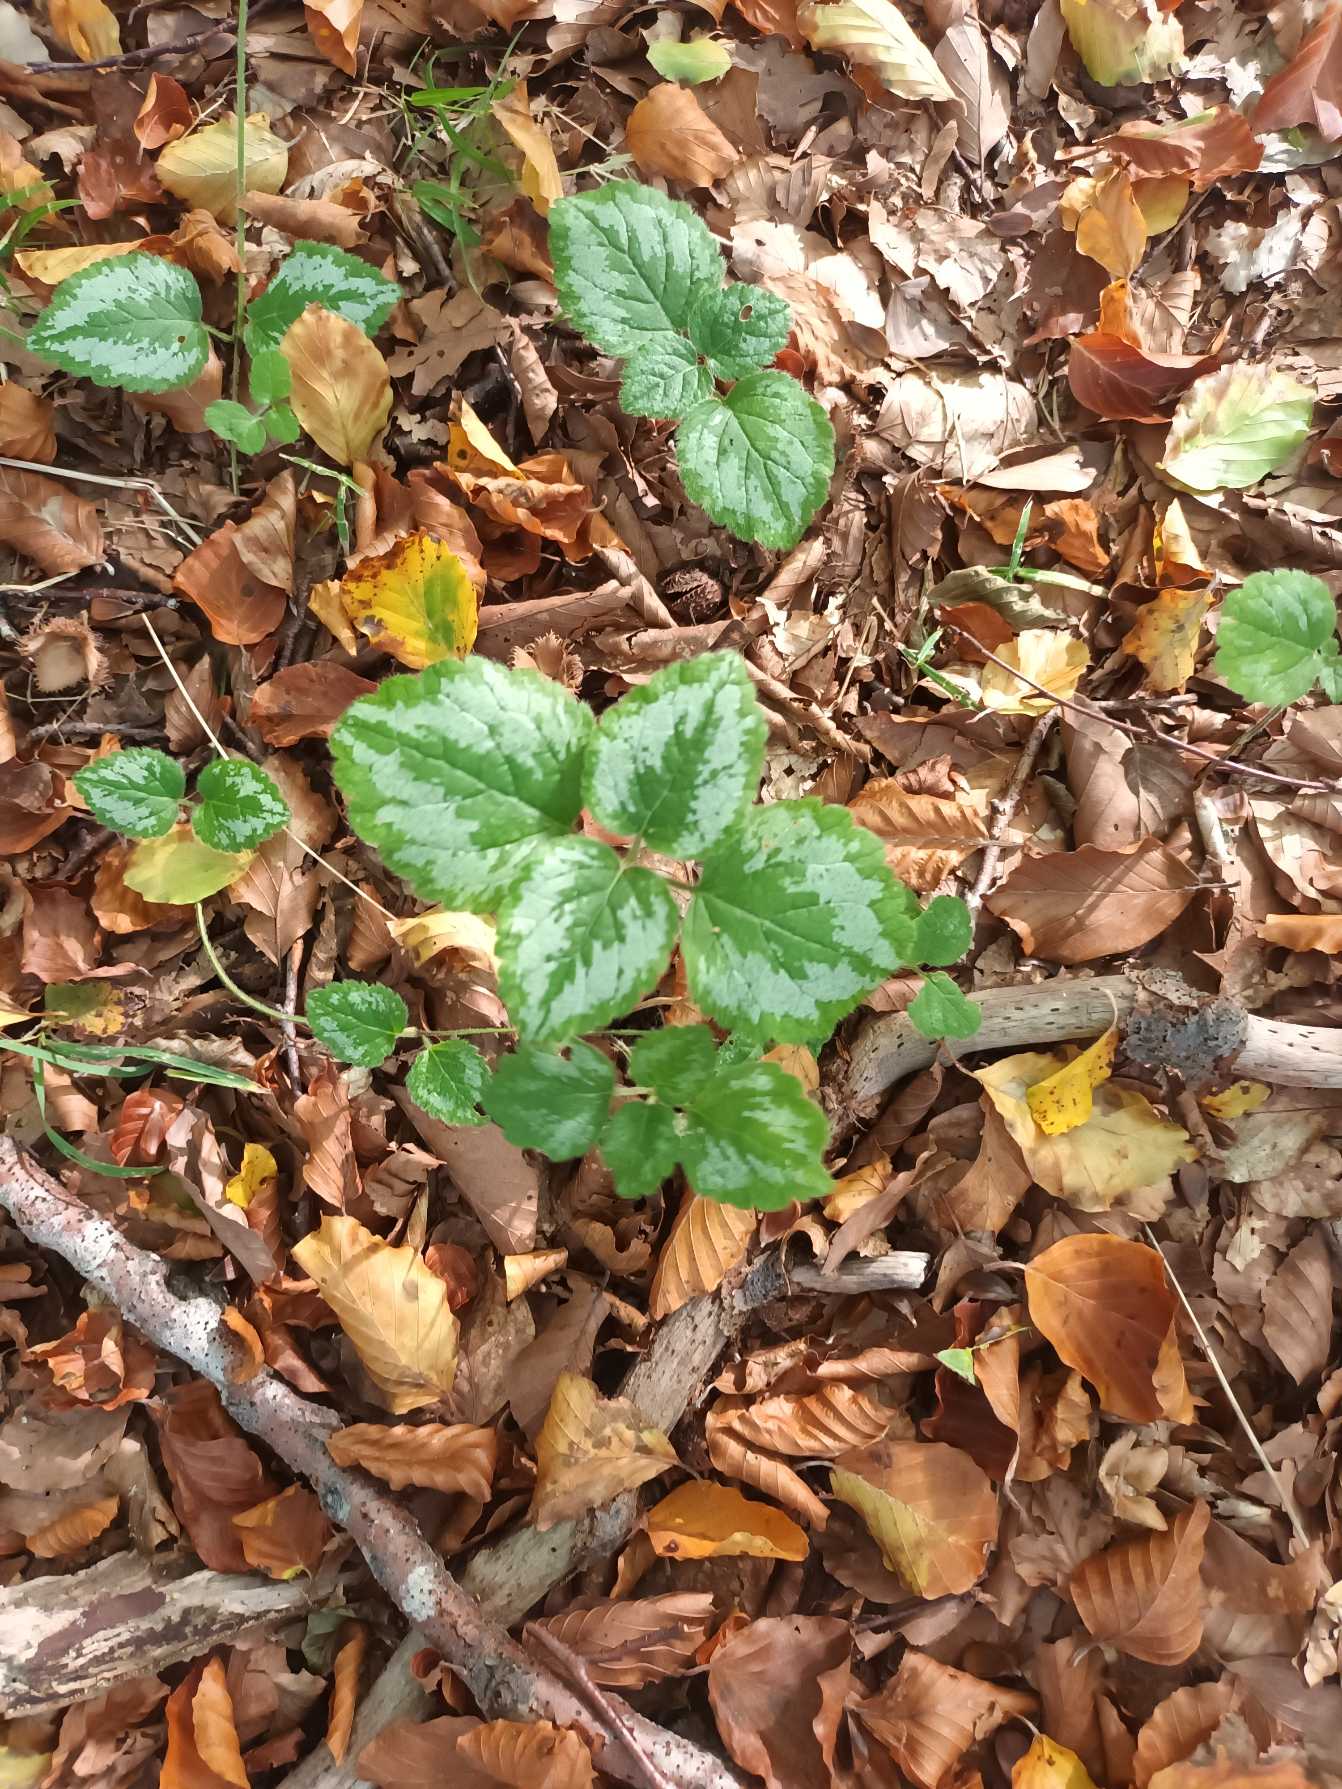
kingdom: Plantae
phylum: Tracheophyta
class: Magnoliopsida
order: Lamiales
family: Lamiaceae
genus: Lamium
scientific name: Lamium galeobdolon
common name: Have-guldnælde
